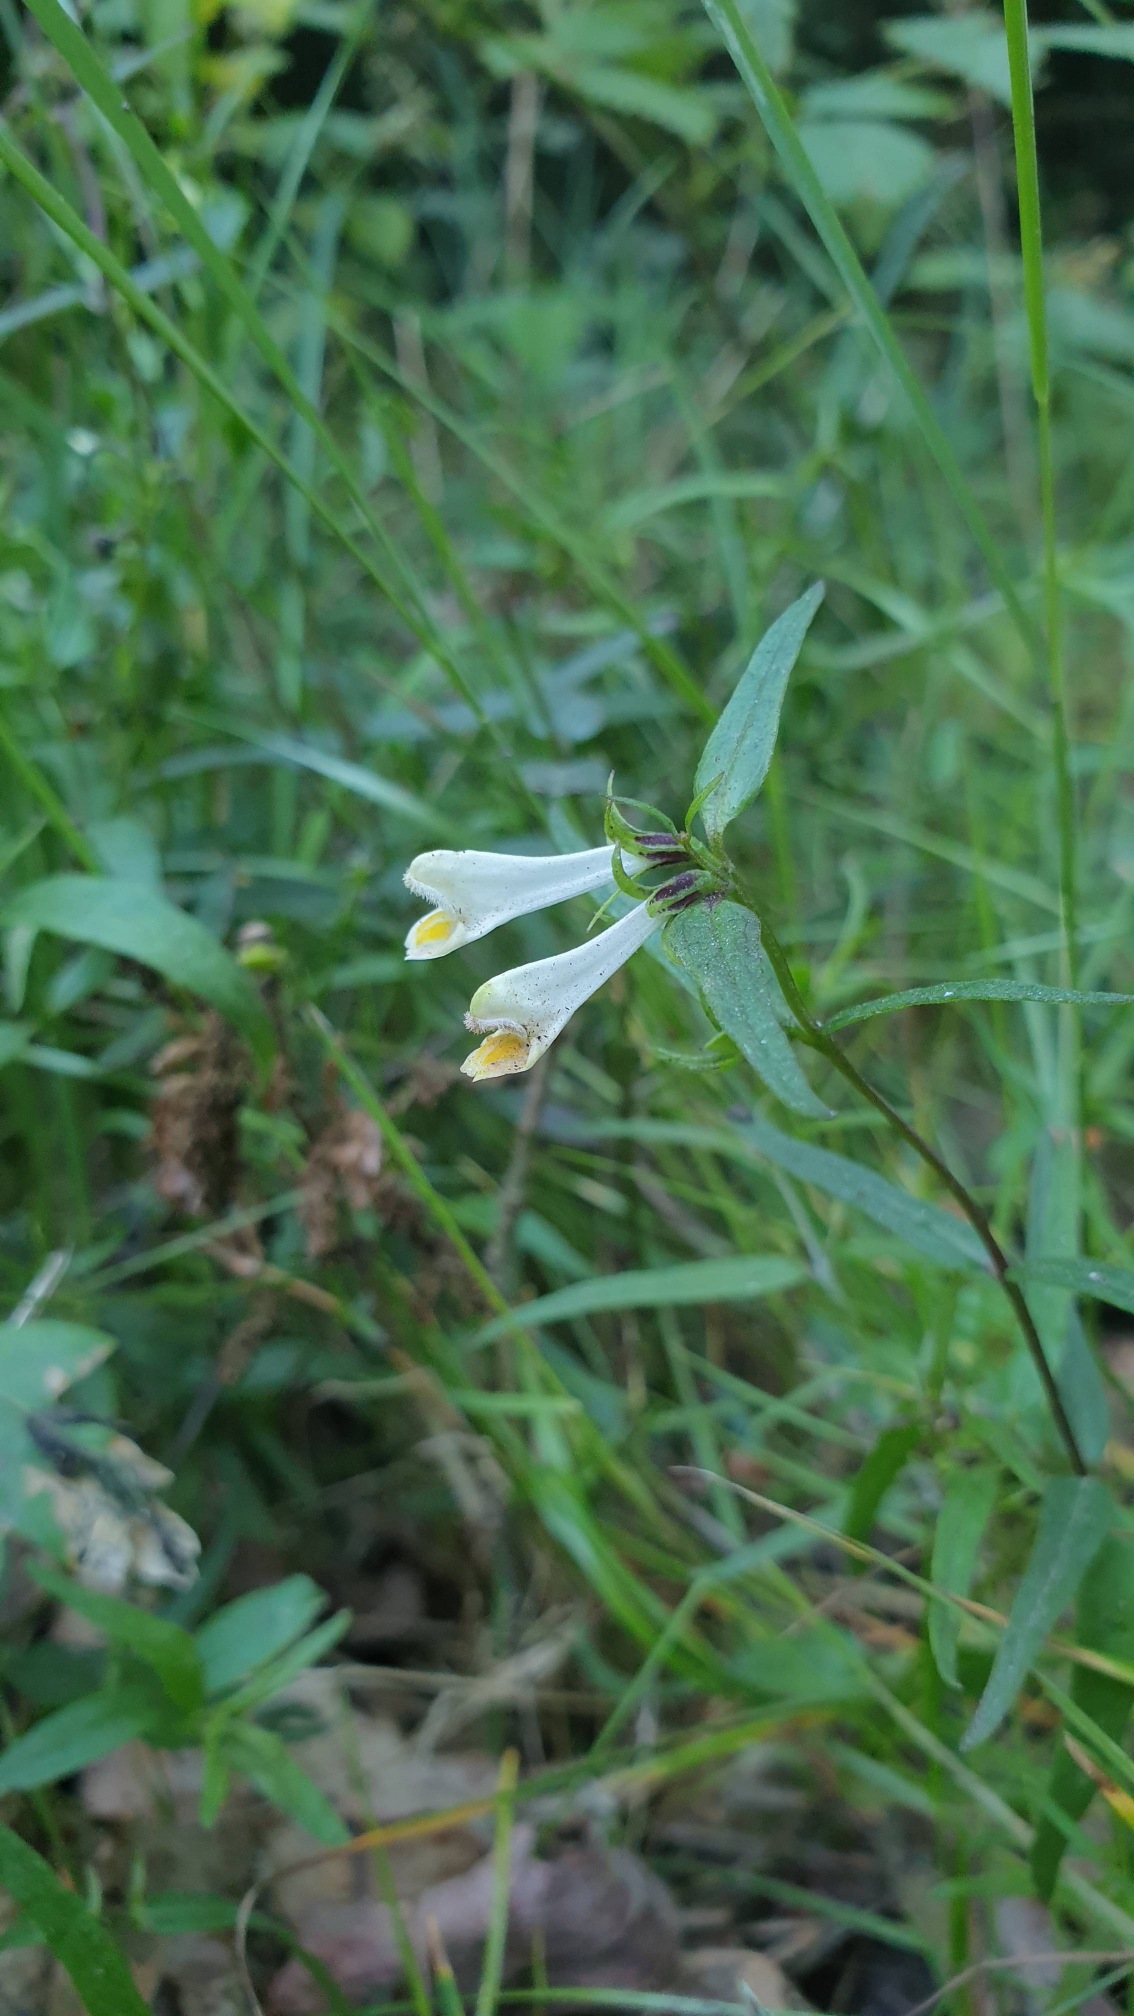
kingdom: Plantae
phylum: Tracheophyta
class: Magnoliopsida
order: Lamiales
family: Orobanchaceae
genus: Melampyrum
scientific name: Melampyrum pratense
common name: Almindelig kohvede
